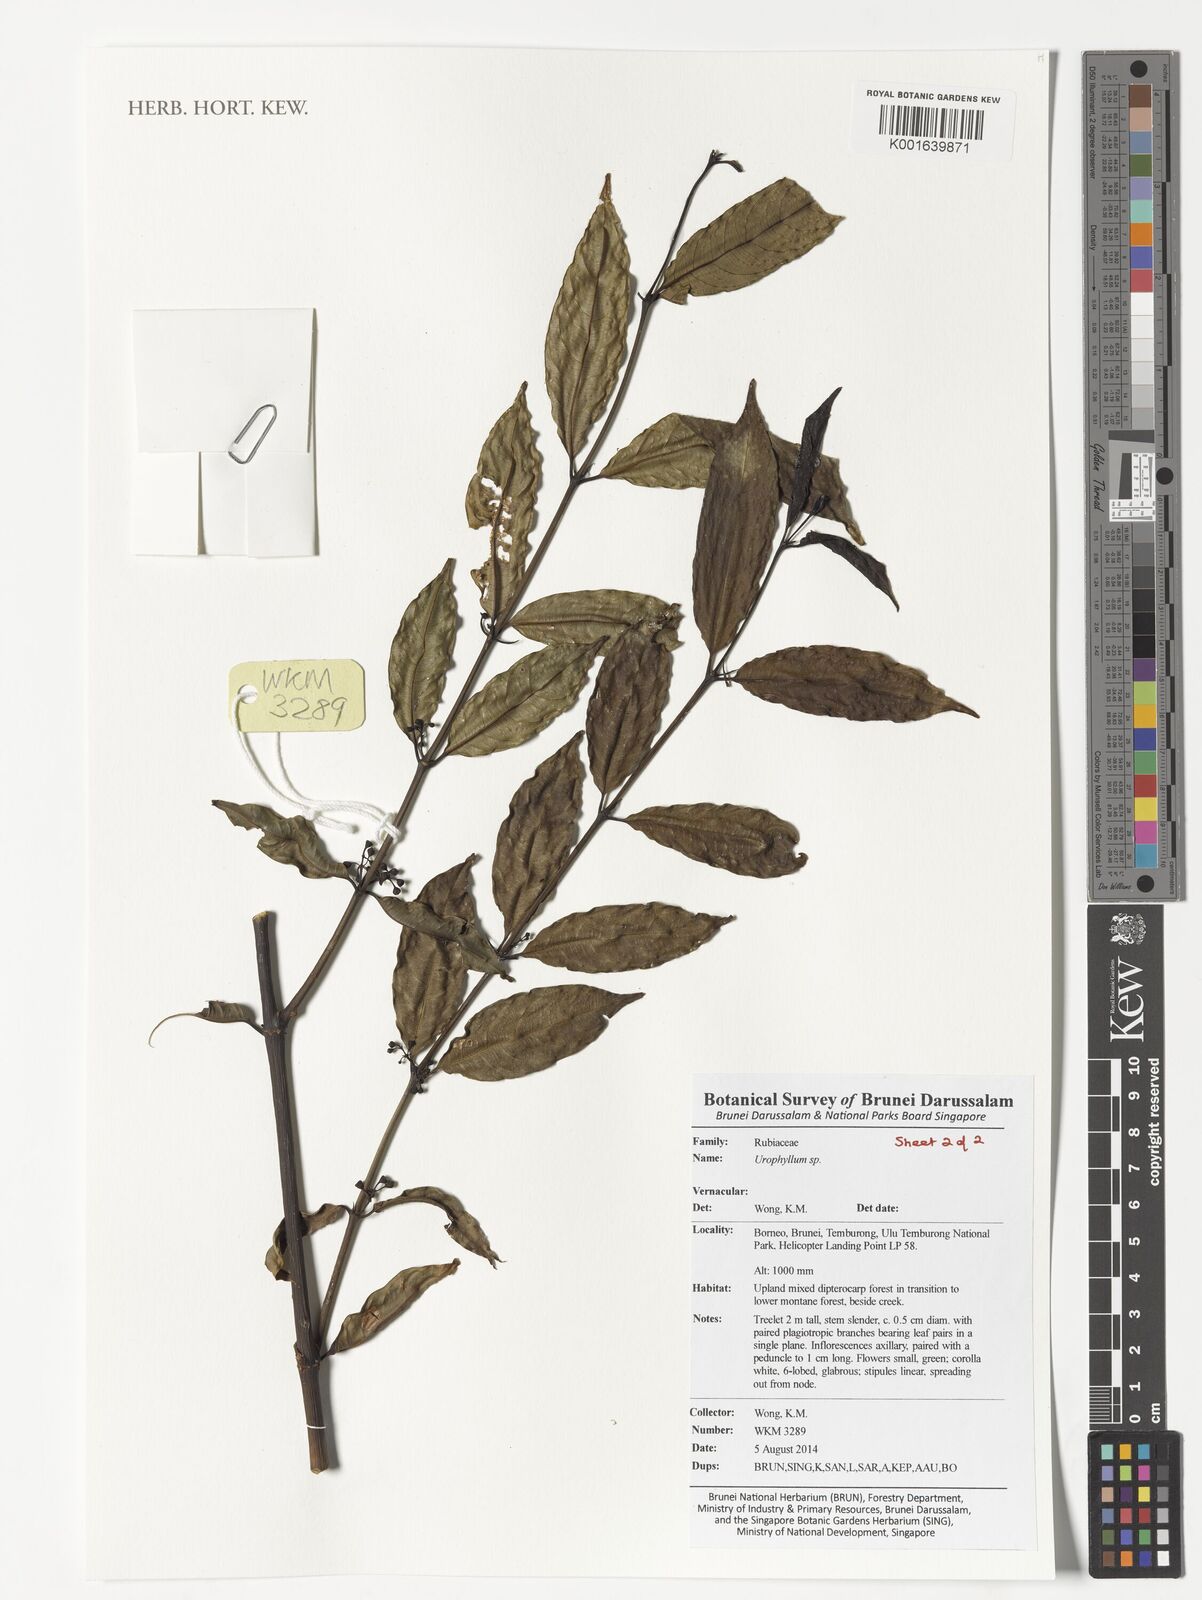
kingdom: Plantae
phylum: Tracheophyta
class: Magnoliopsida
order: Gentianales
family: Rubiaceae
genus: Urophyllum
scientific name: Urophyllum
